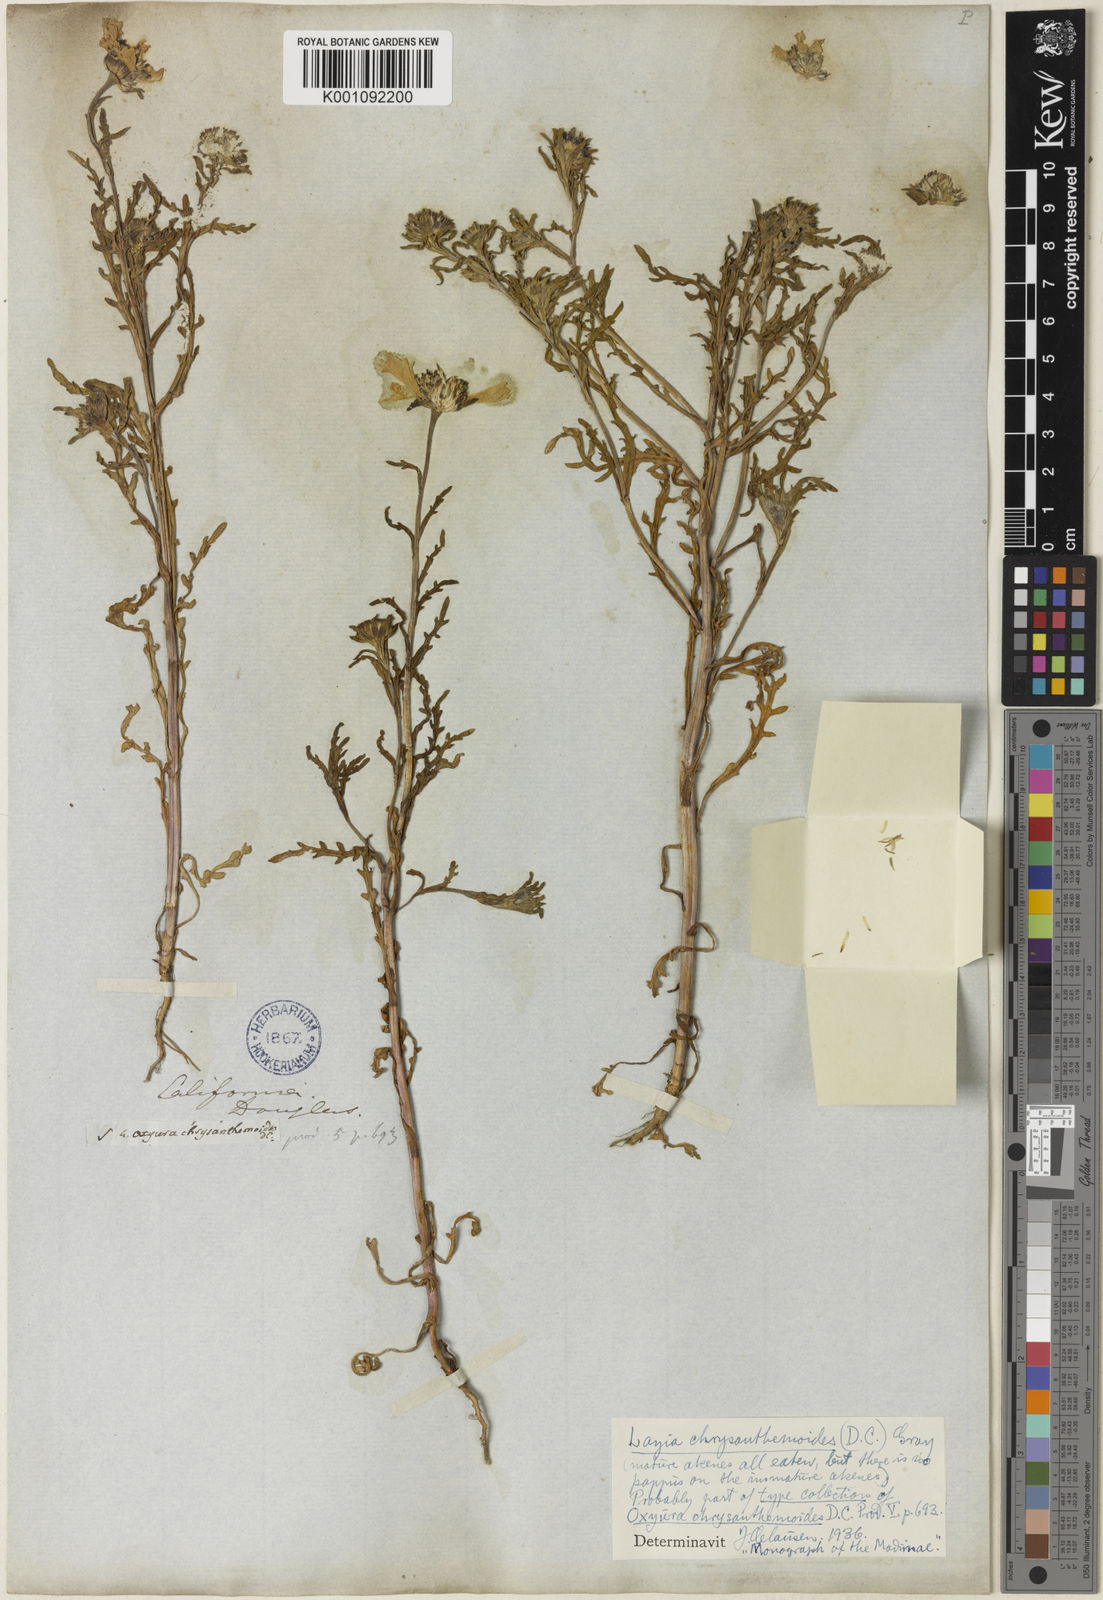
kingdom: Plantae
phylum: Tracheophyta
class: Magnoliopsida
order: Asterales
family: Asteraceae
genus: Layia
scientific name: Layia chrysanthemoides
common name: Smooth layia
